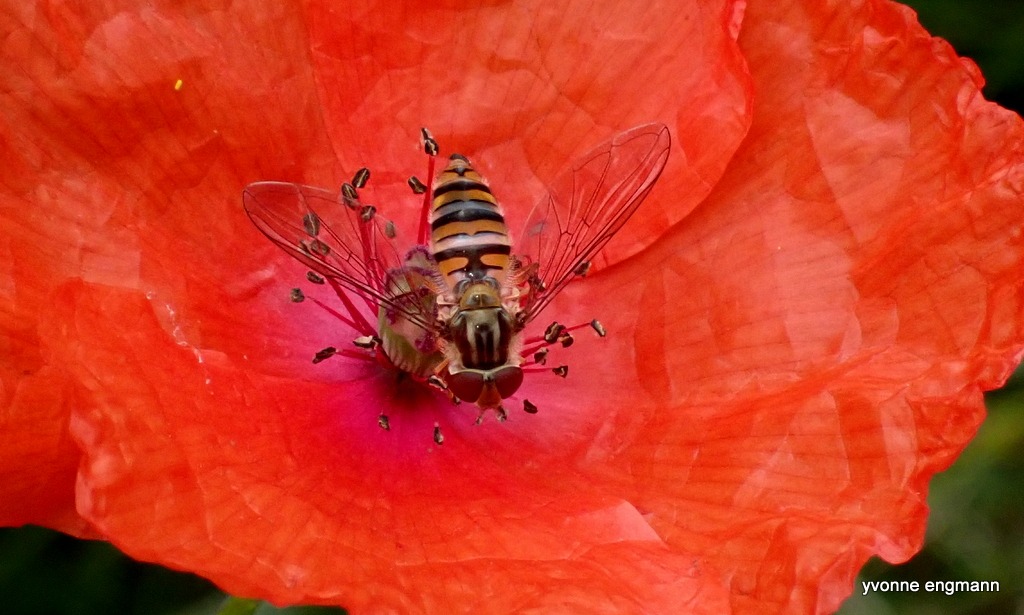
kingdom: Animalia
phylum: Arthropoda
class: Insecta
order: Diptera
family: Syrphidae
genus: Episyrphus
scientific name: Episyrphus balteatus
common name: Dobbeltbåndet svirreflue
